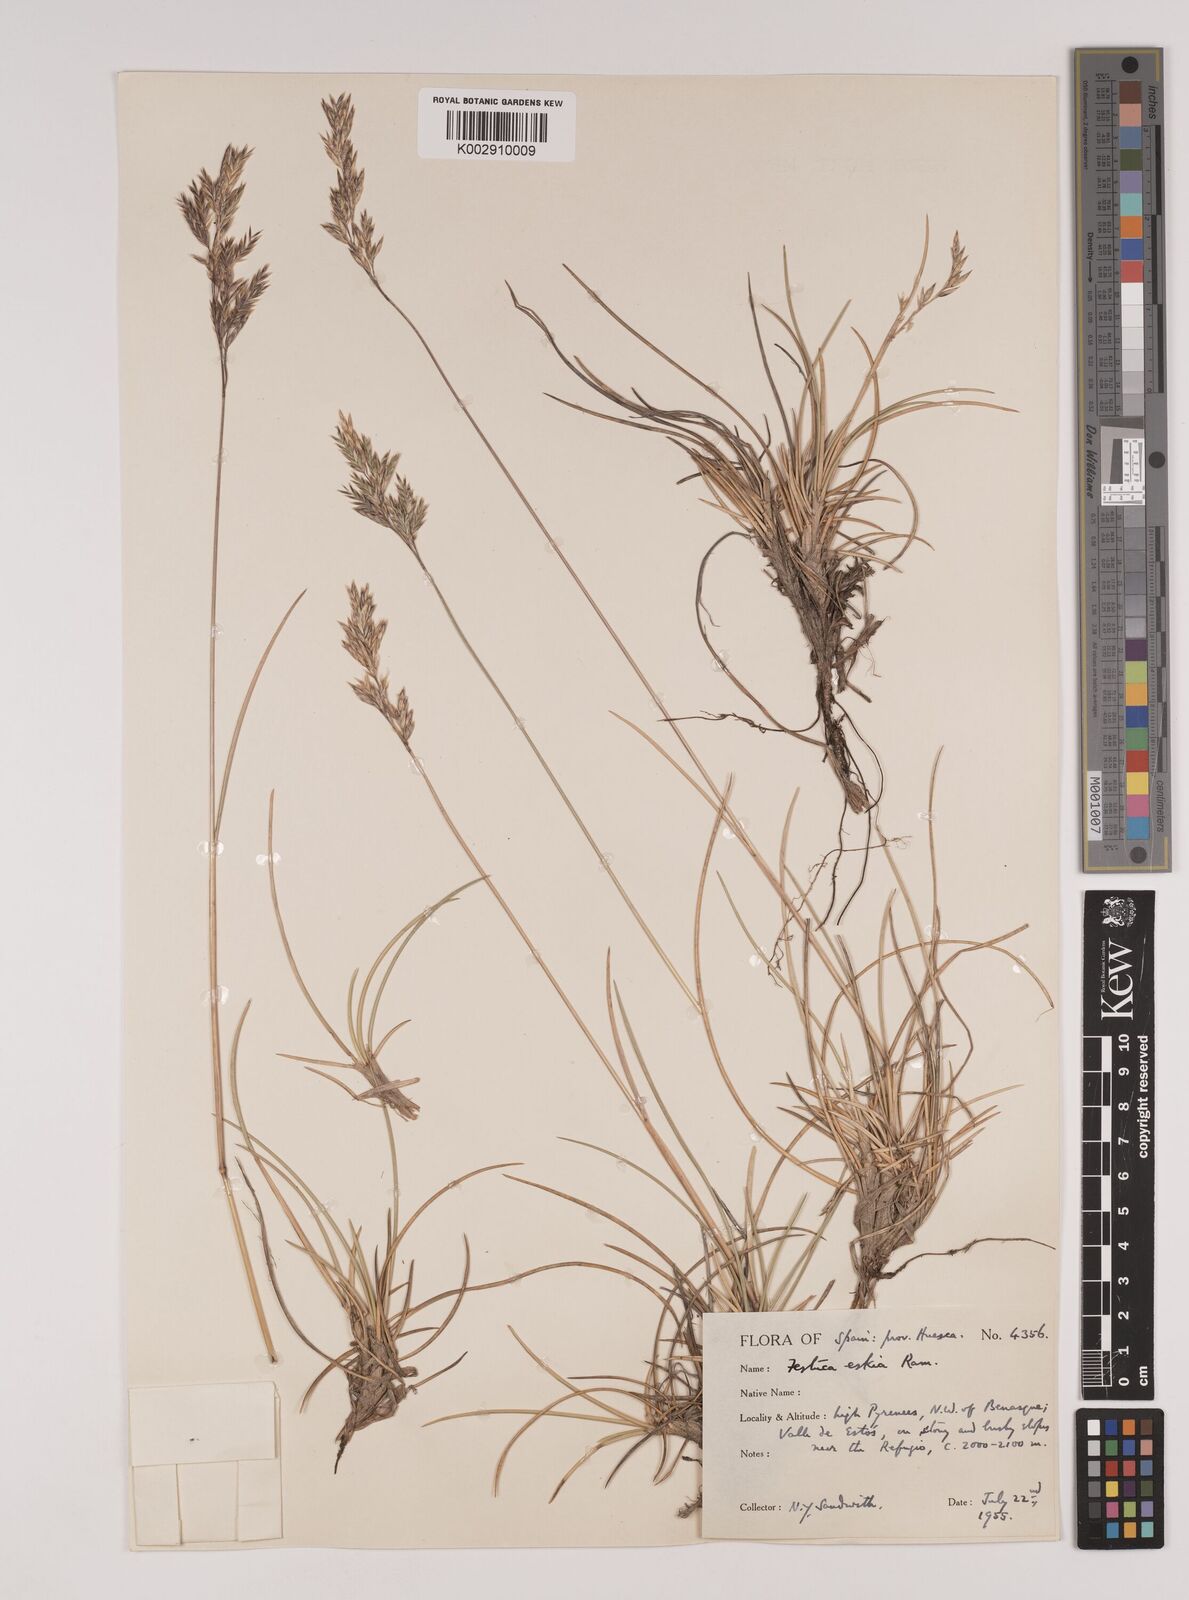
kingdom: Plantae
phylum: Tracheophyta
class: Liliopsida
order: Poales
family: Poaceae
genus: Festuca
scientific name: Festuca eskia
